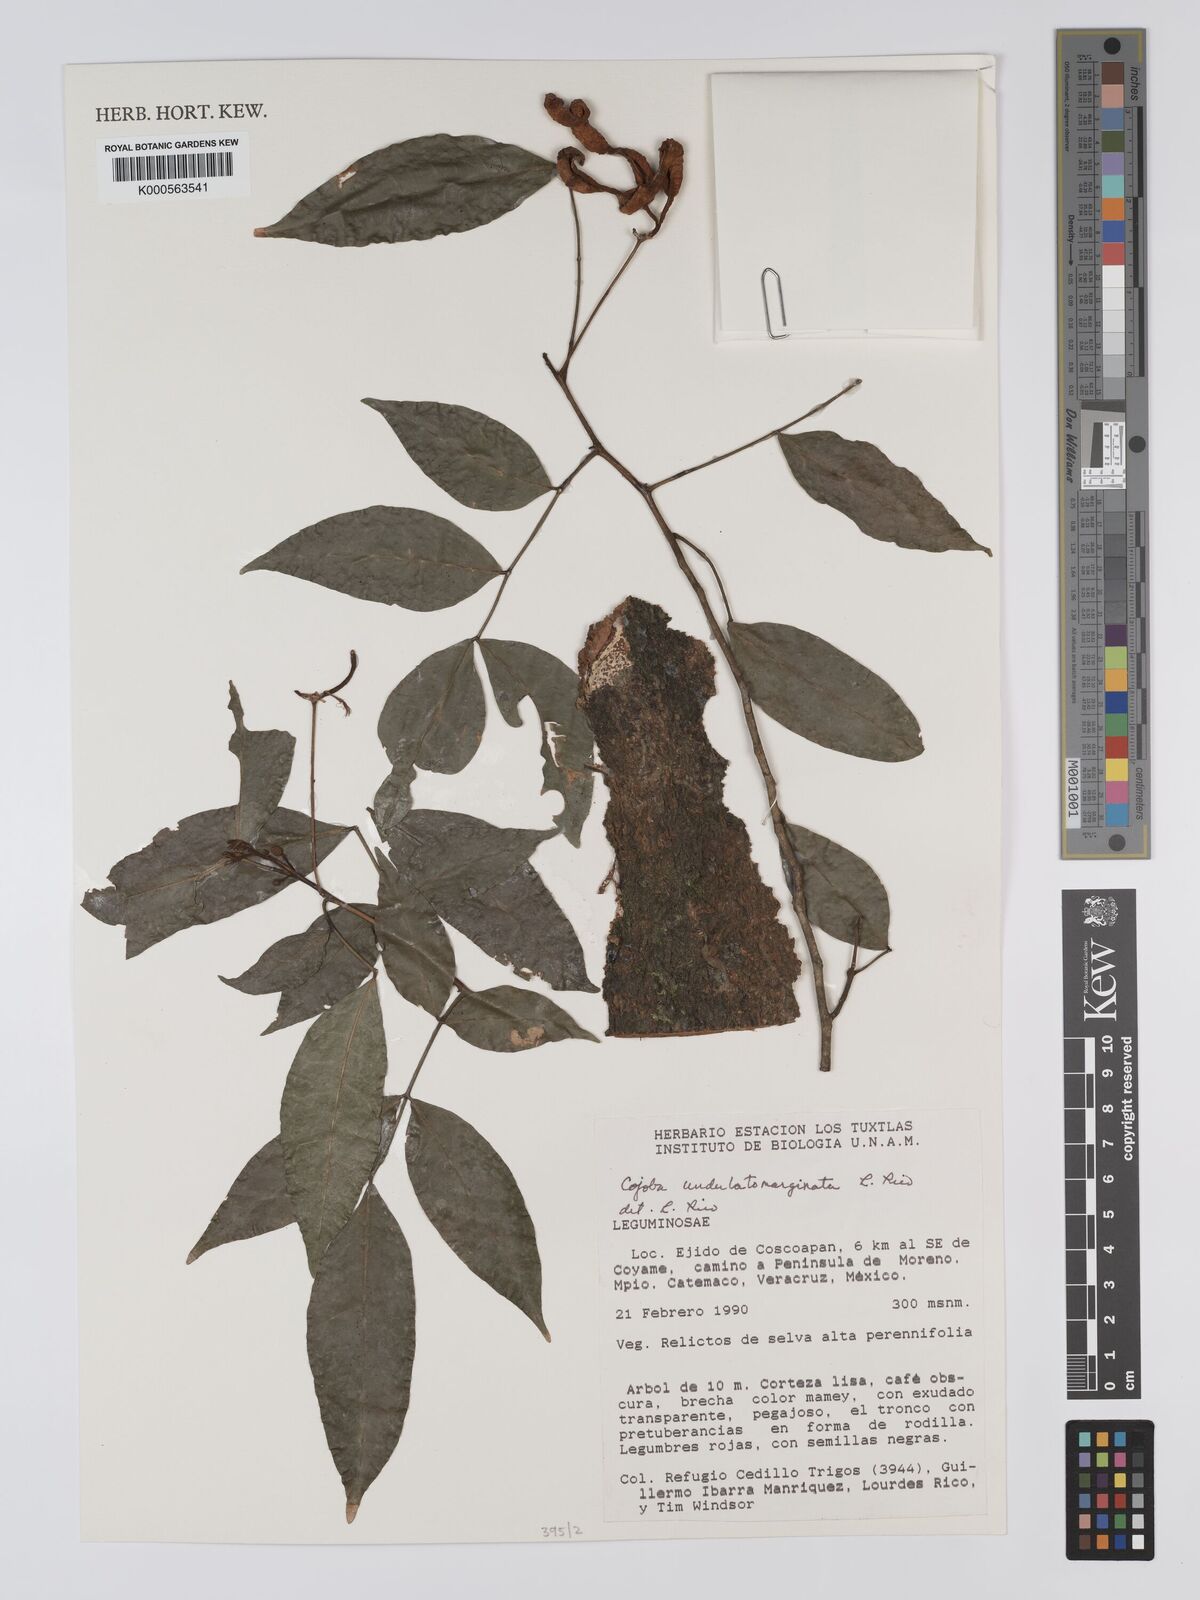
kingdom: Plantae
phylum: Tracheophyta
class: Magnoliopsida
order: Fabales
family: Fabaceae
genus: Cojoba
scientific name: Cojoba rufescens
